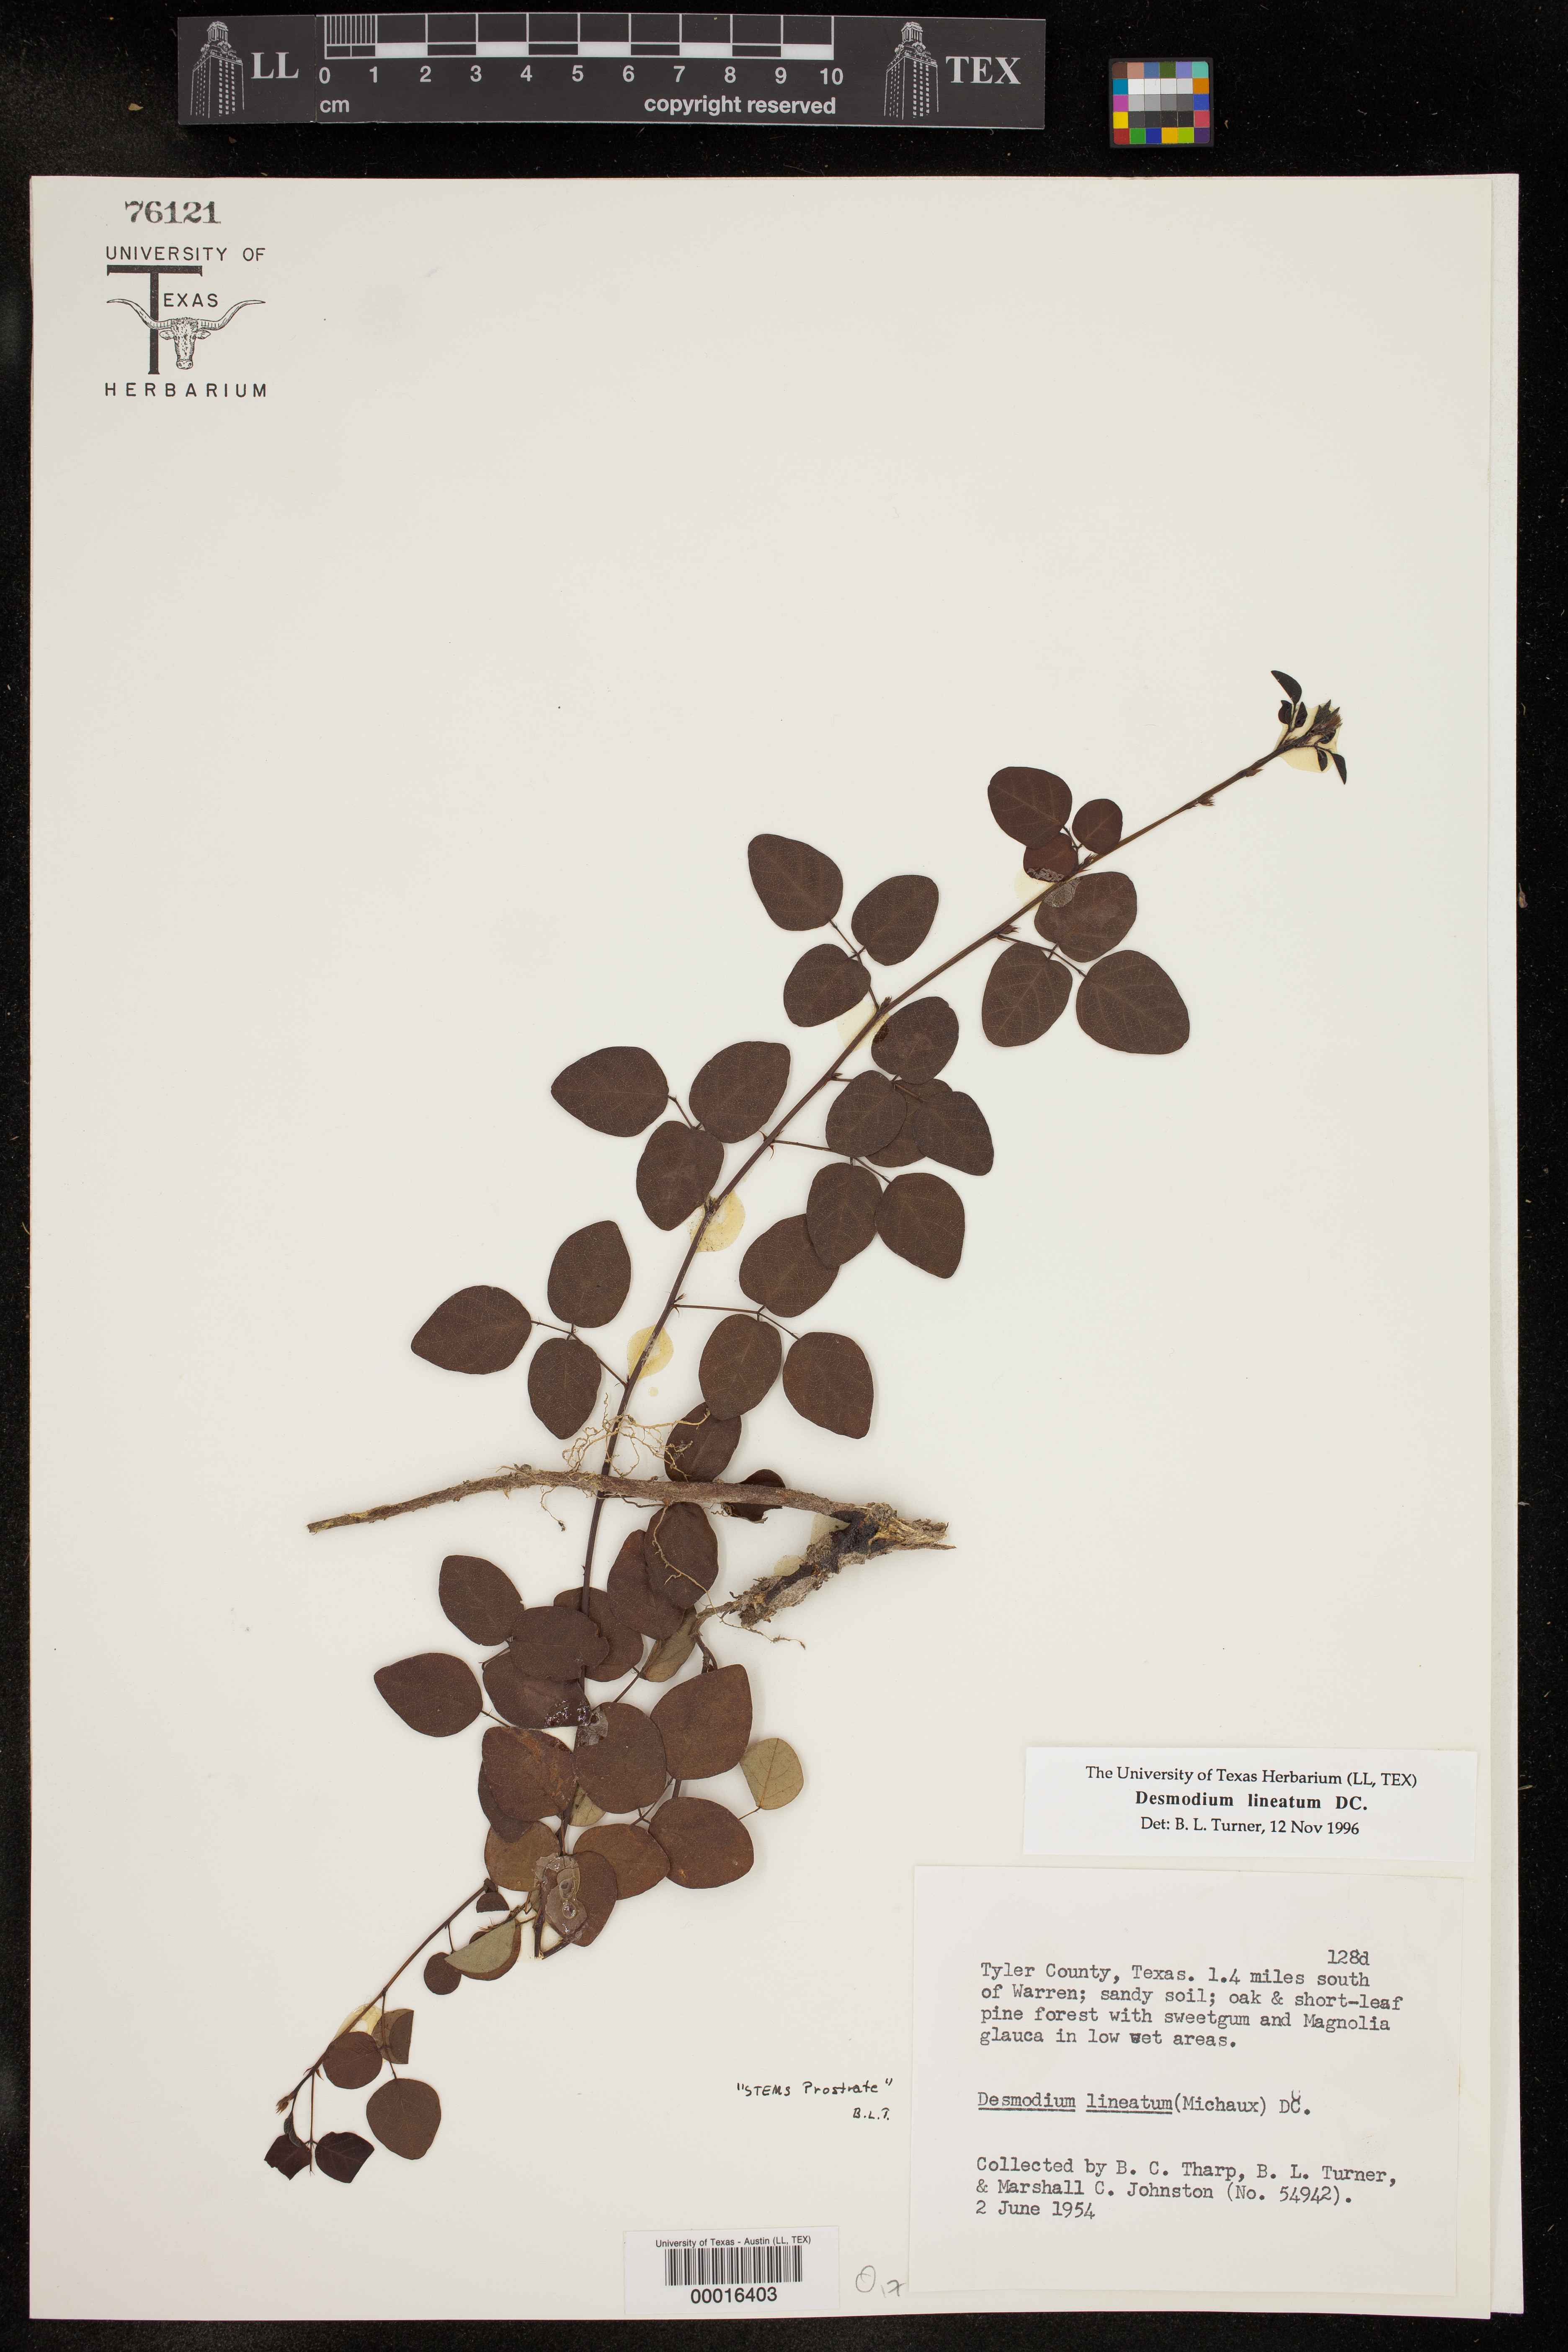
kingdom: Plantae
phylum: Tracheophyta
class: Magnoliopsida
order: Fabales
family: Fabaceae
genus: Desmodium
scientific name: Desmodium lineatum
